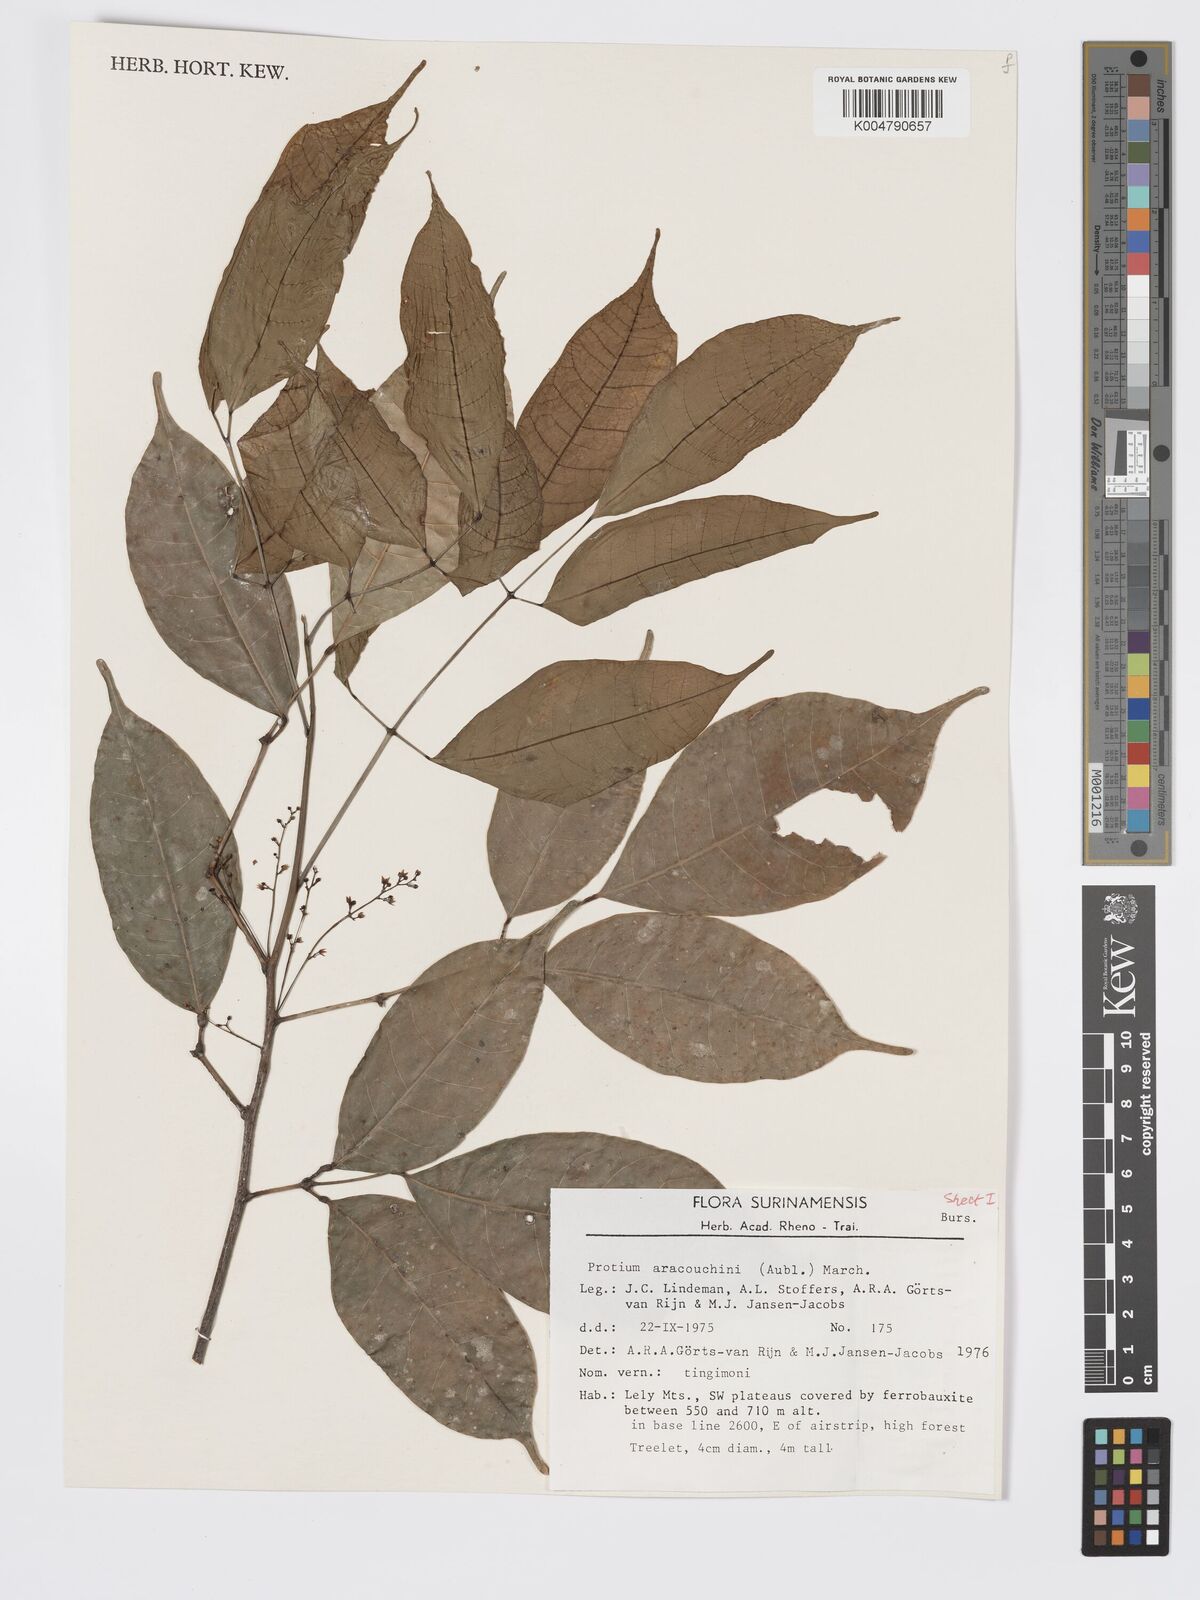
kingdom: Plantae
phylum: Tracheophyta
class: Magnoliopsida
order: Sapindales
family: Burseraceae
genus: Protium
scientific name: Protium aracouchini
